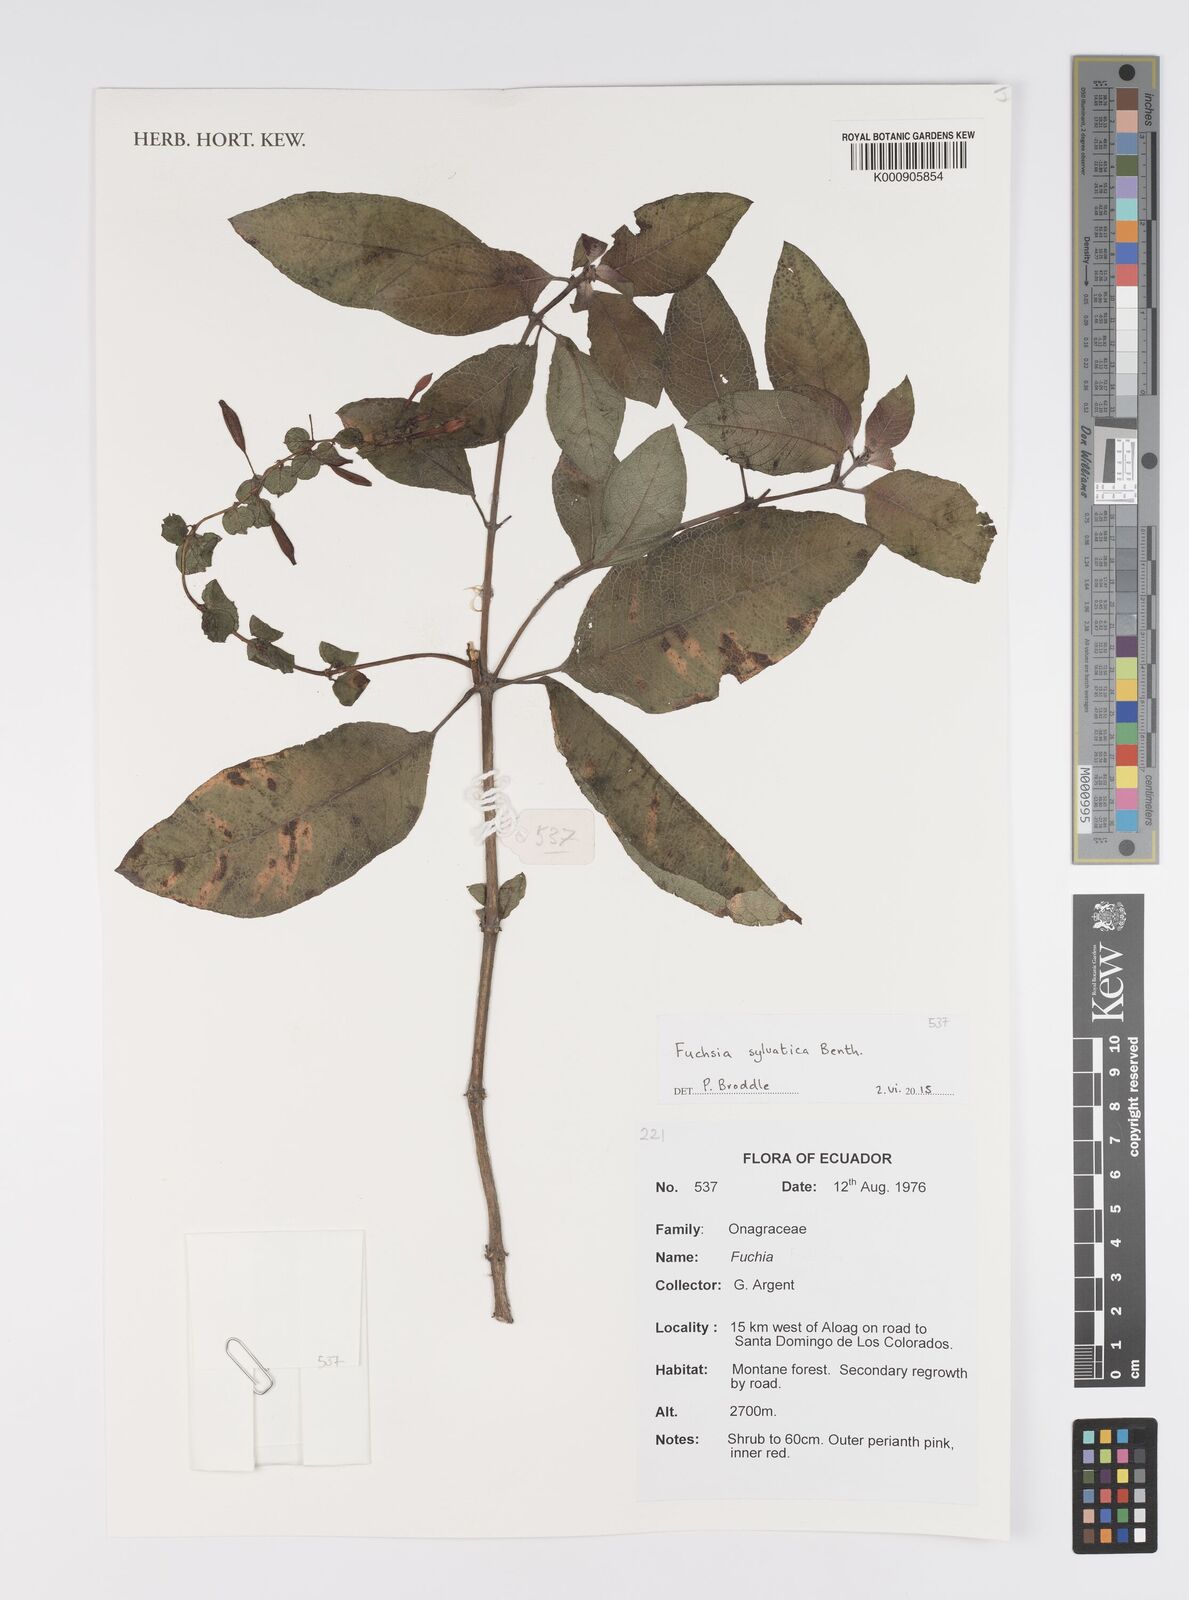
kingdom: Plantae
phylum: Tracheophyta
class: Magnoliopsida
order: Myrtales
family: Onagraceae
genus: Fuchsia
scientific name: Fuchsia sylvatica
